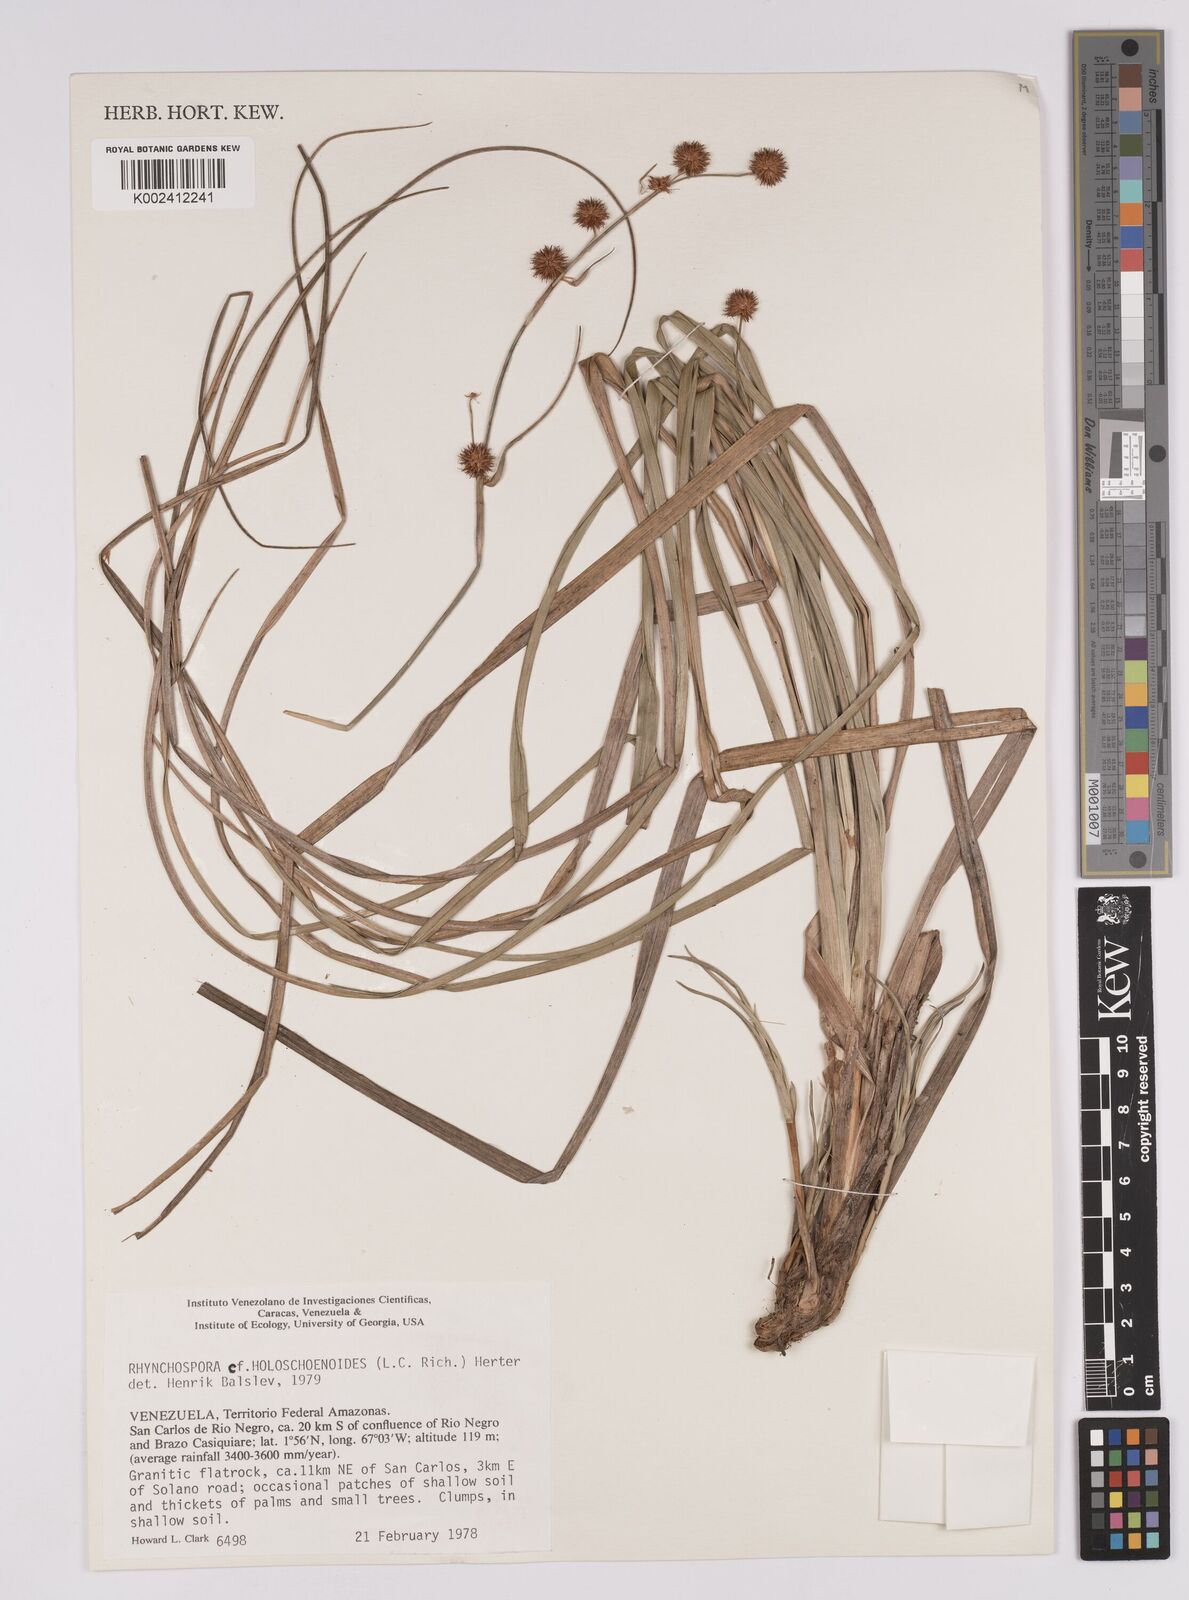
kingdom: Plantae
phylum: Tracheophyta
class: Liliopsida
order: Poales
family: Cyperaceae
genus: Rhynchospora
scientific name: Rhynchospora holoschoenoides
